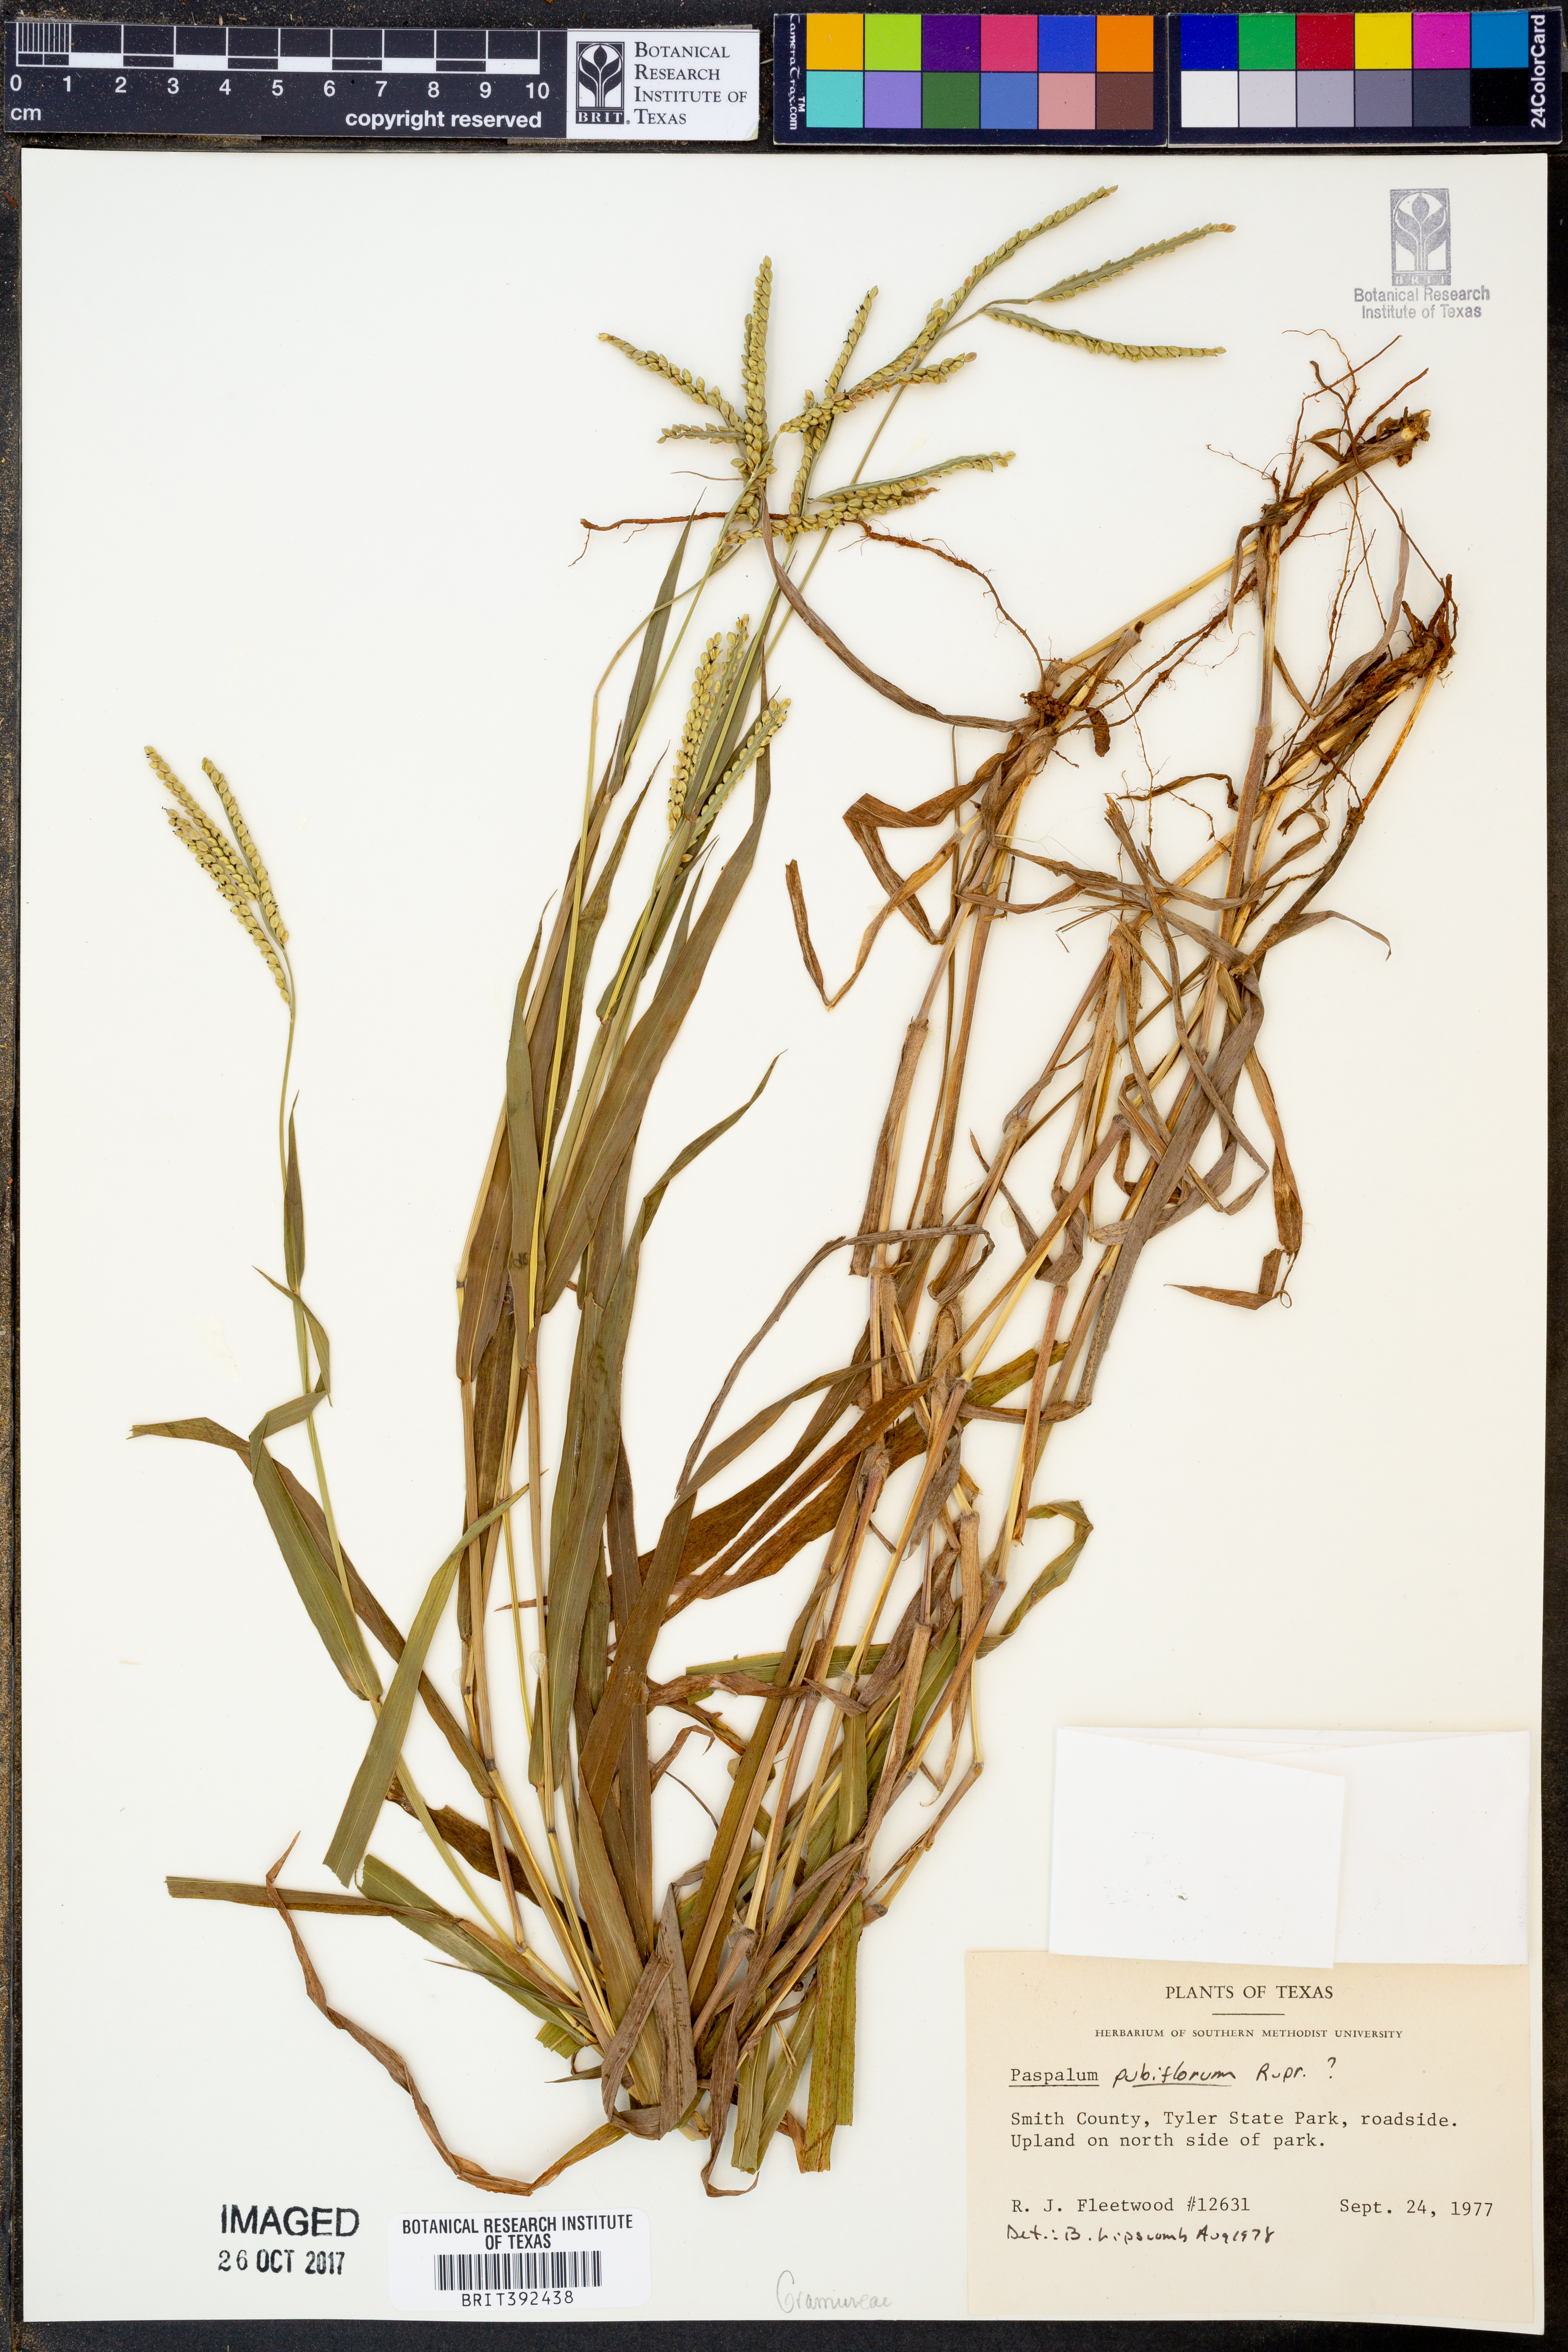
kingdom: Plantae
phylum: Tracheophyta
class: Liliopsida
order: Poales
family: Poaceae
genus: Paspalum
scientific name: Paspalum pubiflorum
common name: Hairy-seed paspalum
